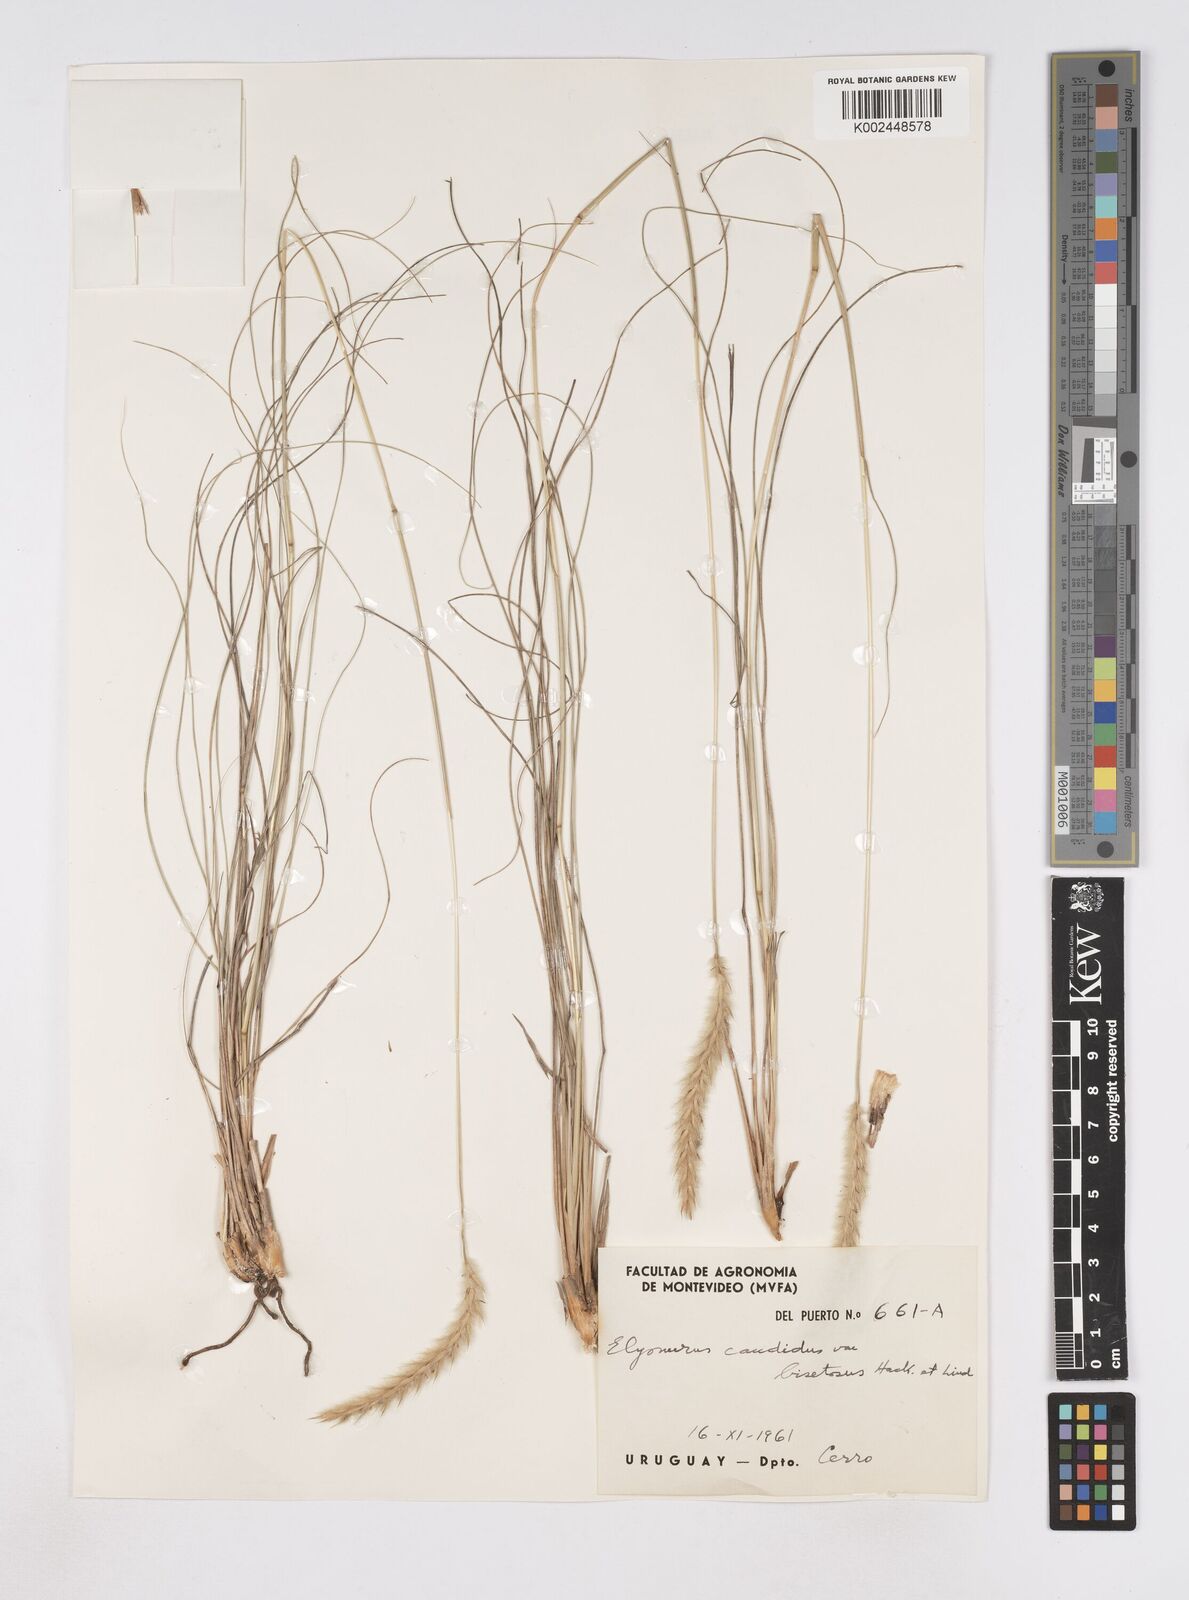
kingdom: Plantae
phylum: Tracheophyta
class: Liliopsida
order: Poales
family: Poaceae
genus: Elionurus
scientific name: Elionurus muticus
